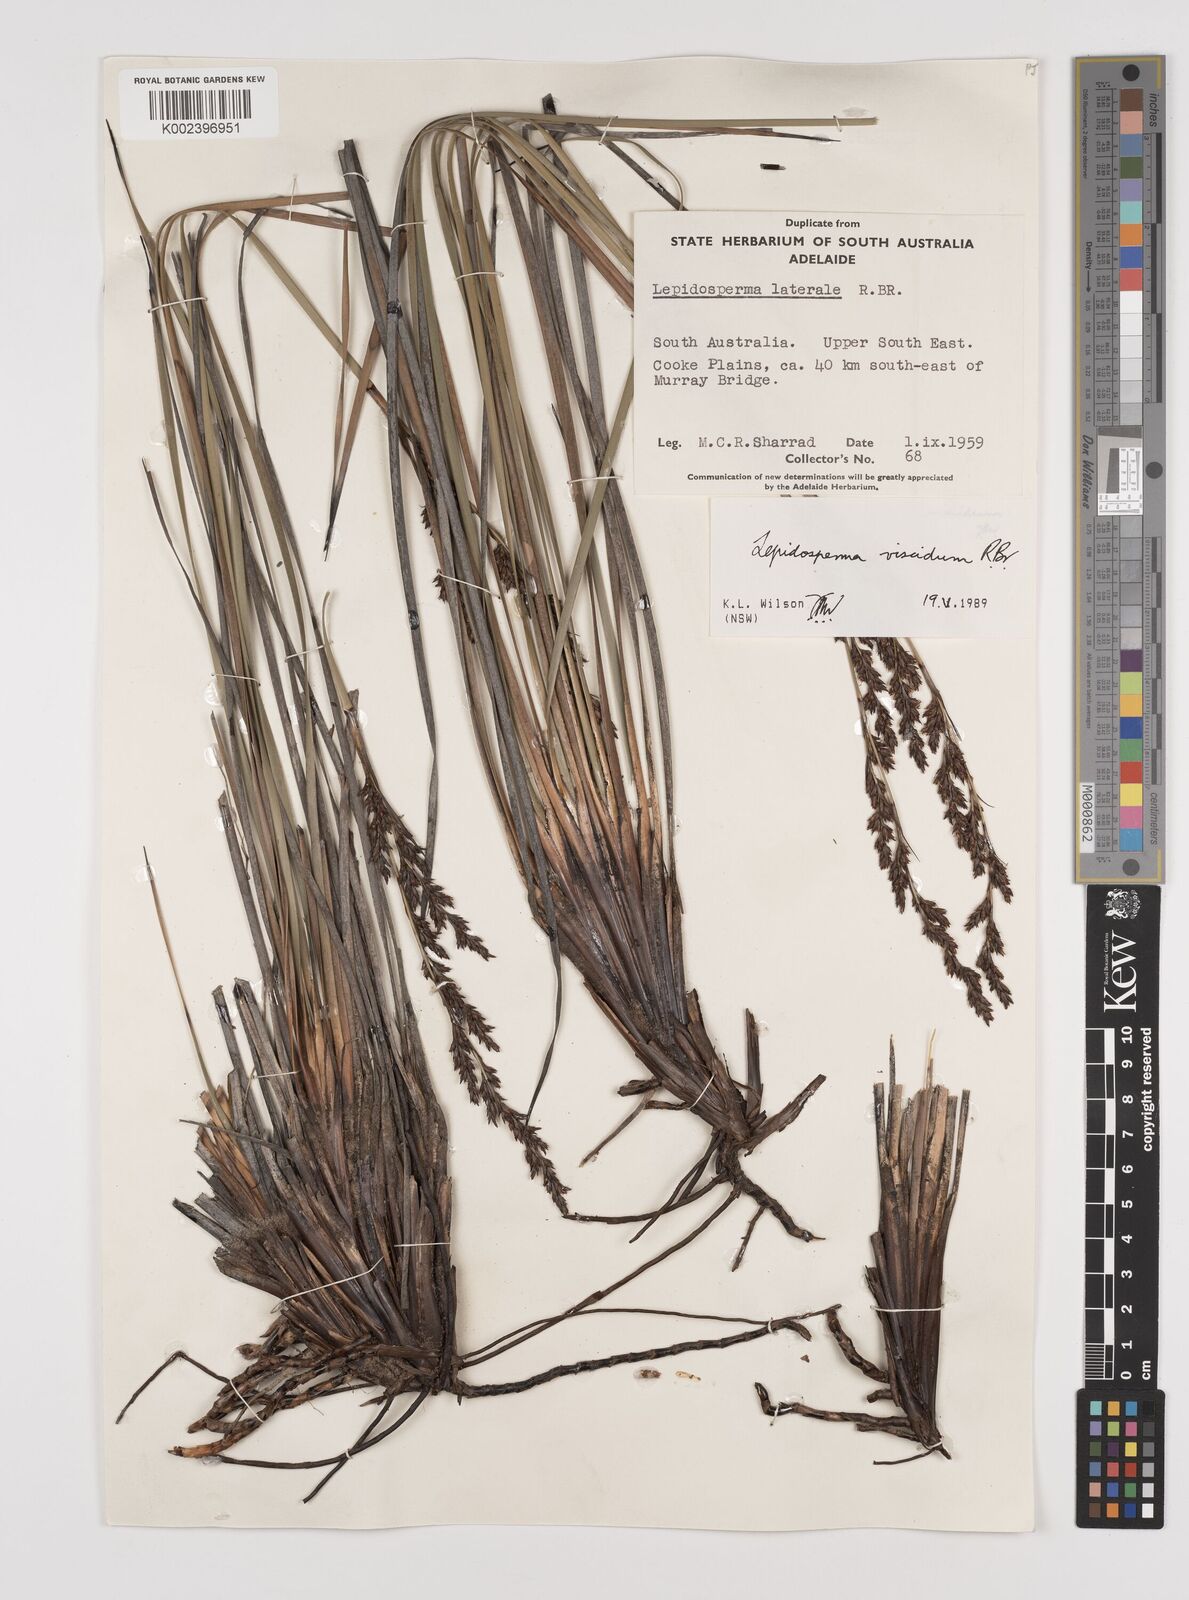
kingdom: Plantae
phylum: Tracheophyta
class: Liliopsida
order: Poales
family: Cyperaceae
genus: Lepidosperma
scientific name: Lepidosperma viscidum
